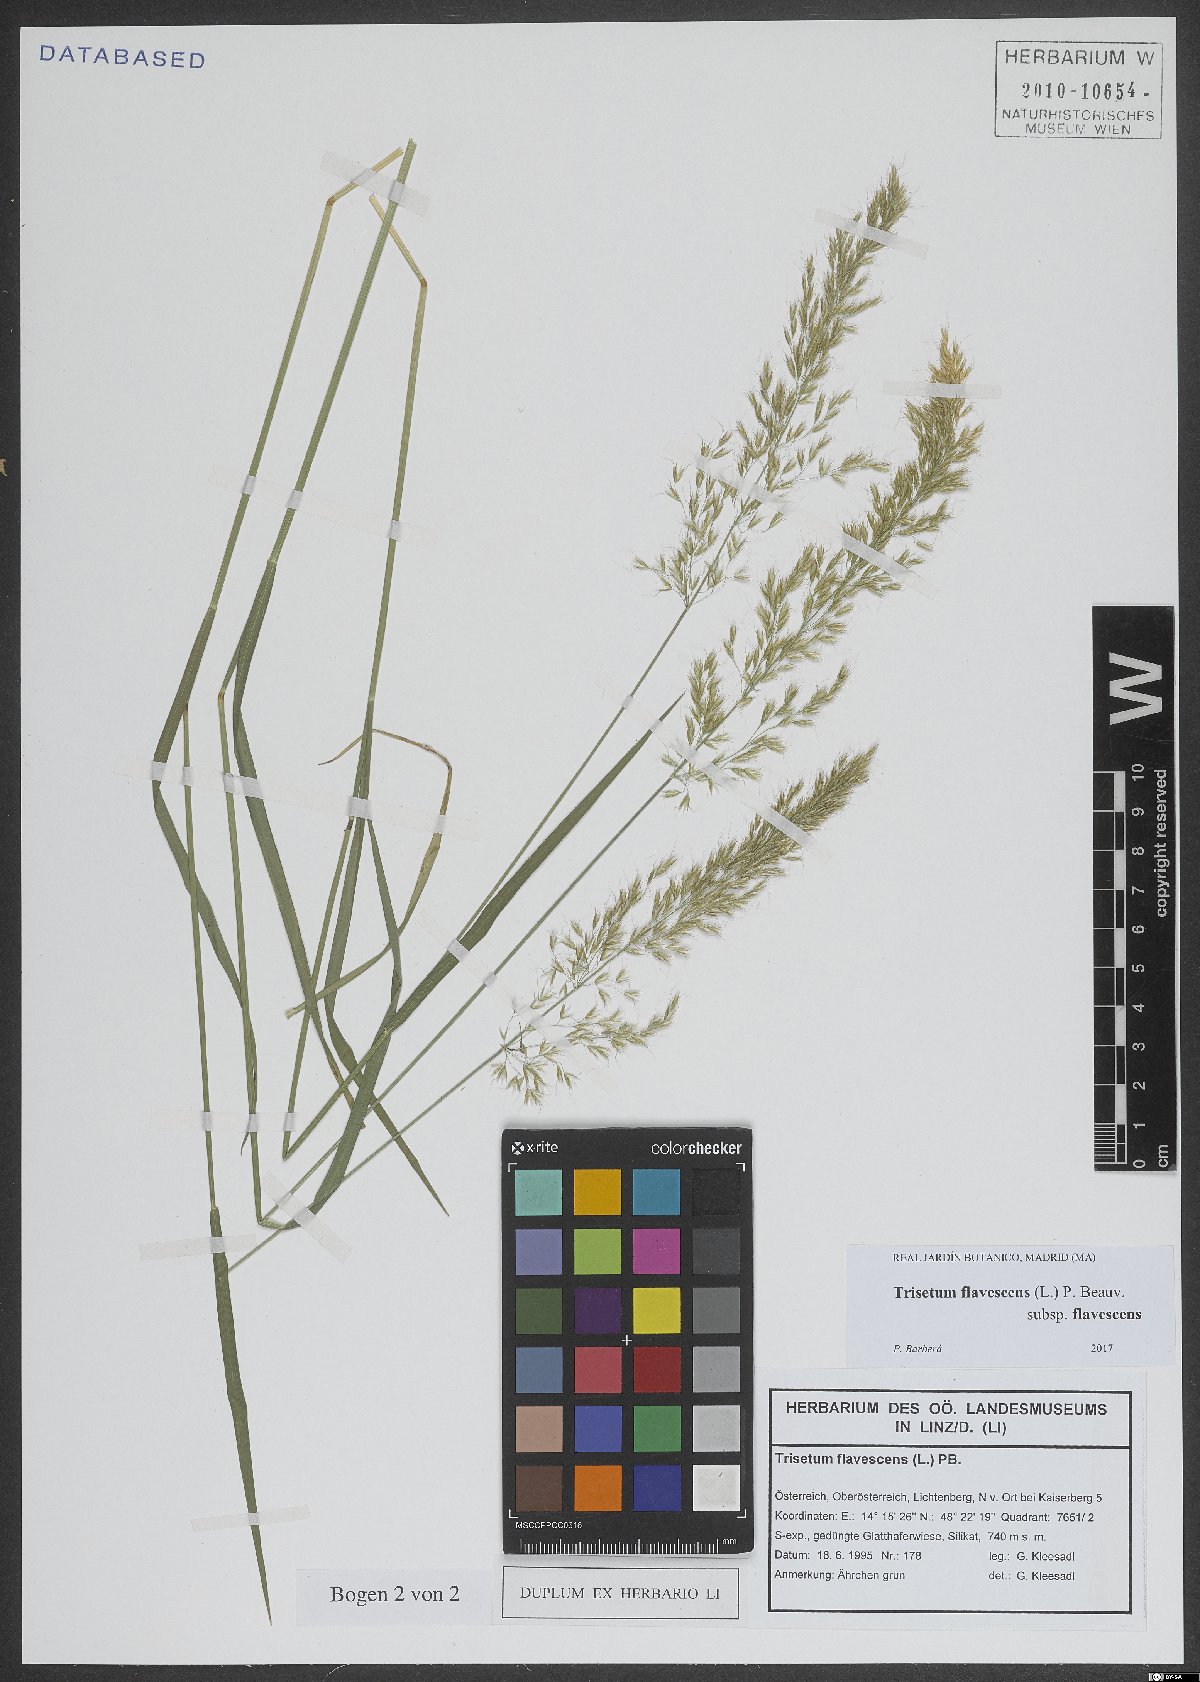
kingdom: Plantae
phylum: Tracheophyta
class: Liliopsida
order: Poales
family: Poaceae
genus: Trisetum
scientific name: Trisetum flavescens
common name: Yellow oat-grass
